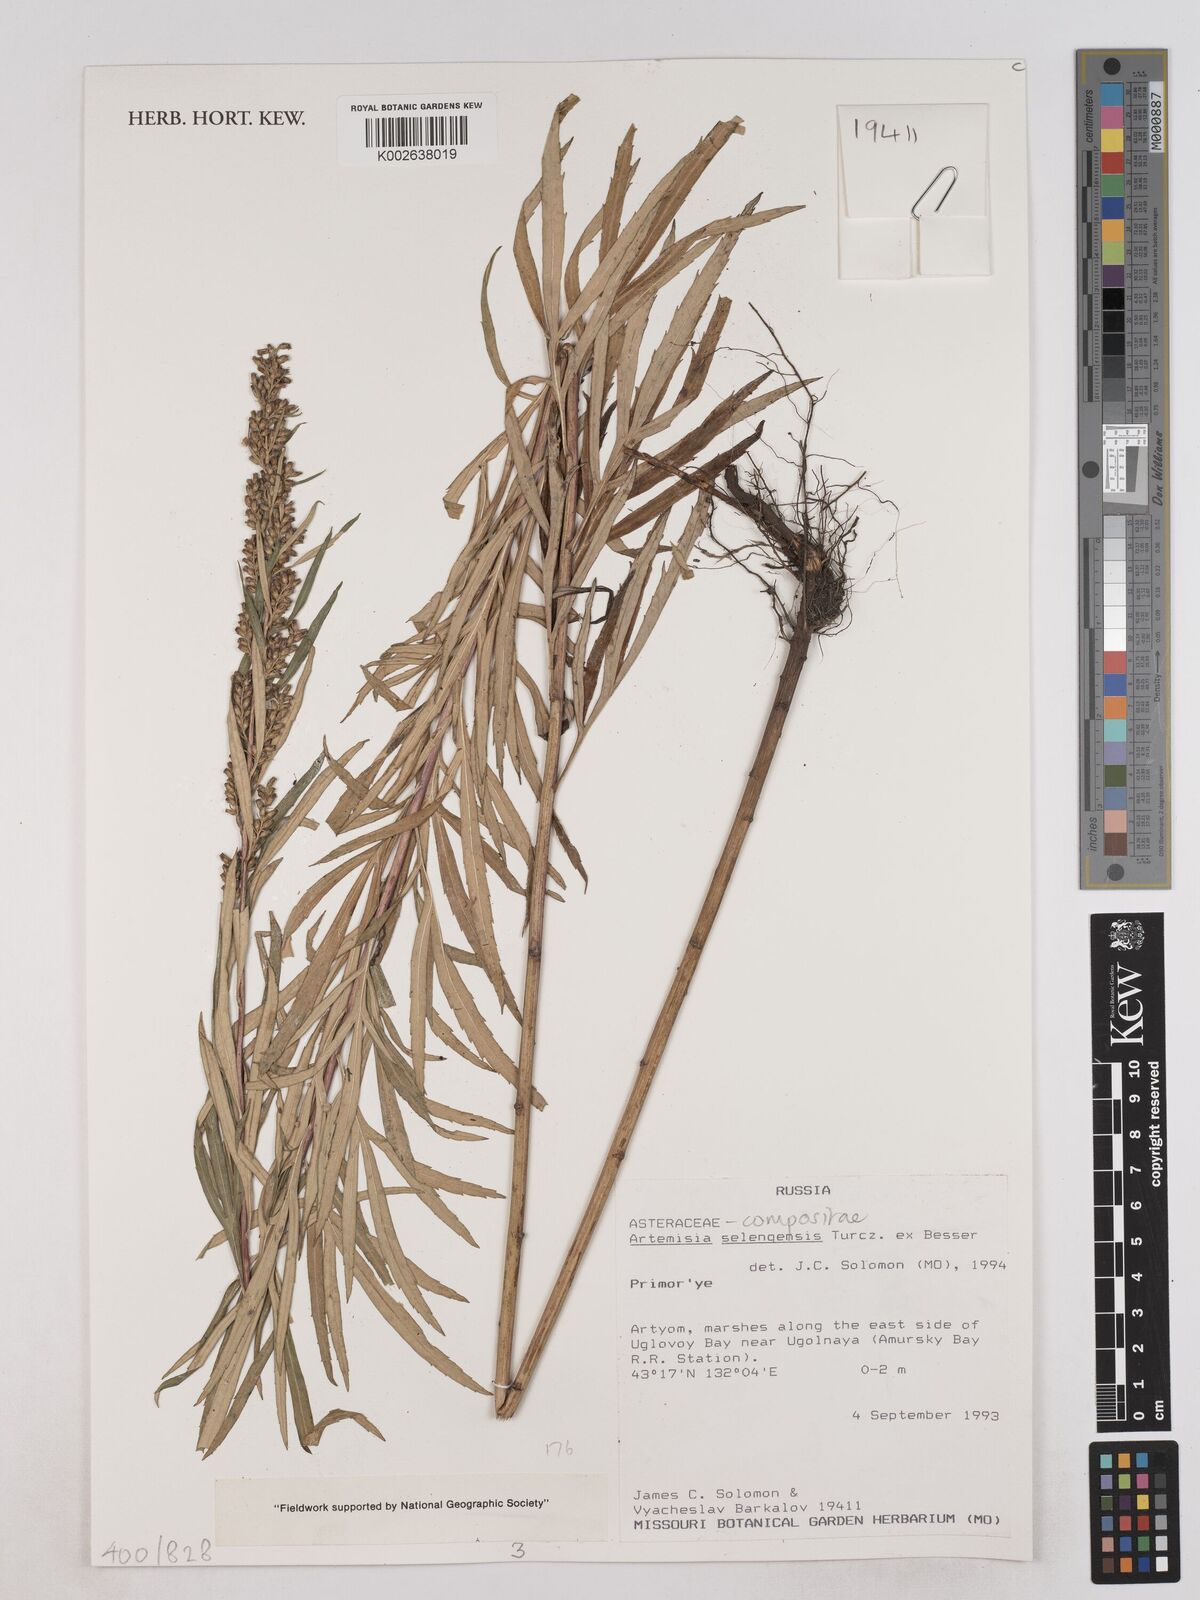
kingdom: Plantae
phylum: Tracheophyta
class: Magnoliopsida
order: Asterales
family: Asteraceae
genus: Artemisia
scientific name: Artemisia selengensis
